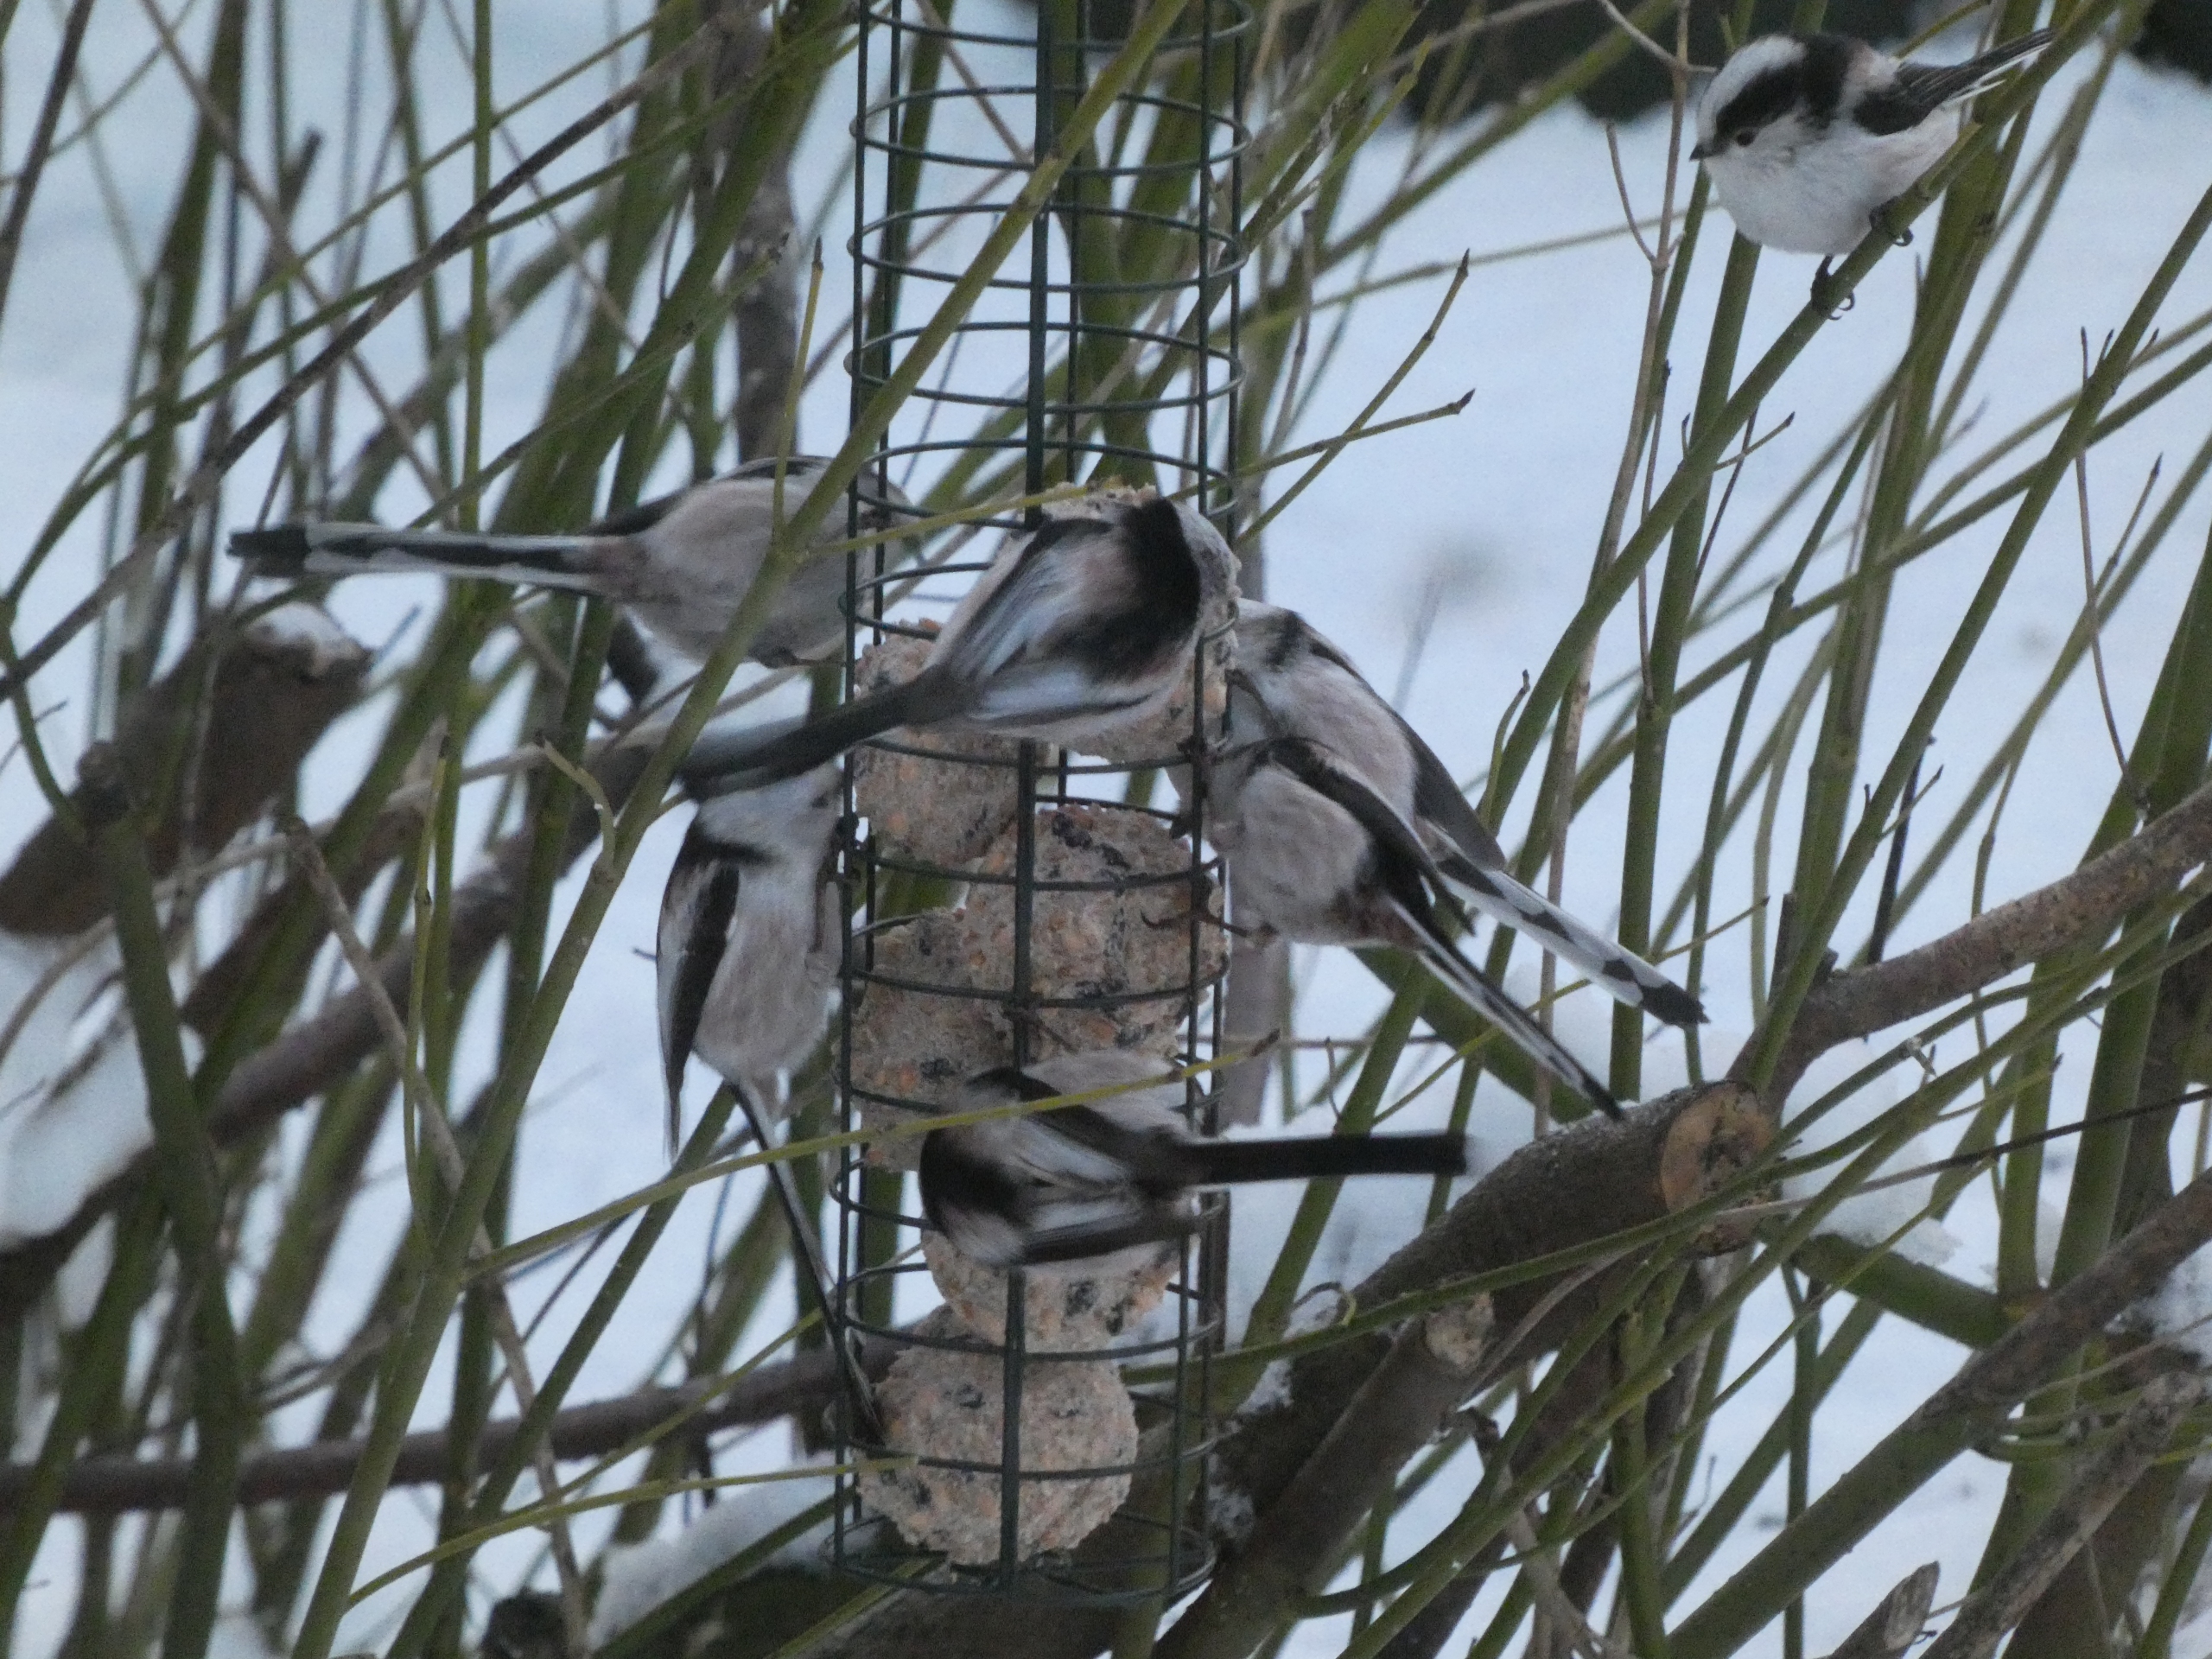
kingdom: Animalia
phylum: Chordata
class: Aves
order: Passeriformes
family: Aegithalidae
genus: Aegithalos
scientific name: Aegithalos caudatus
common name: Halemejse
